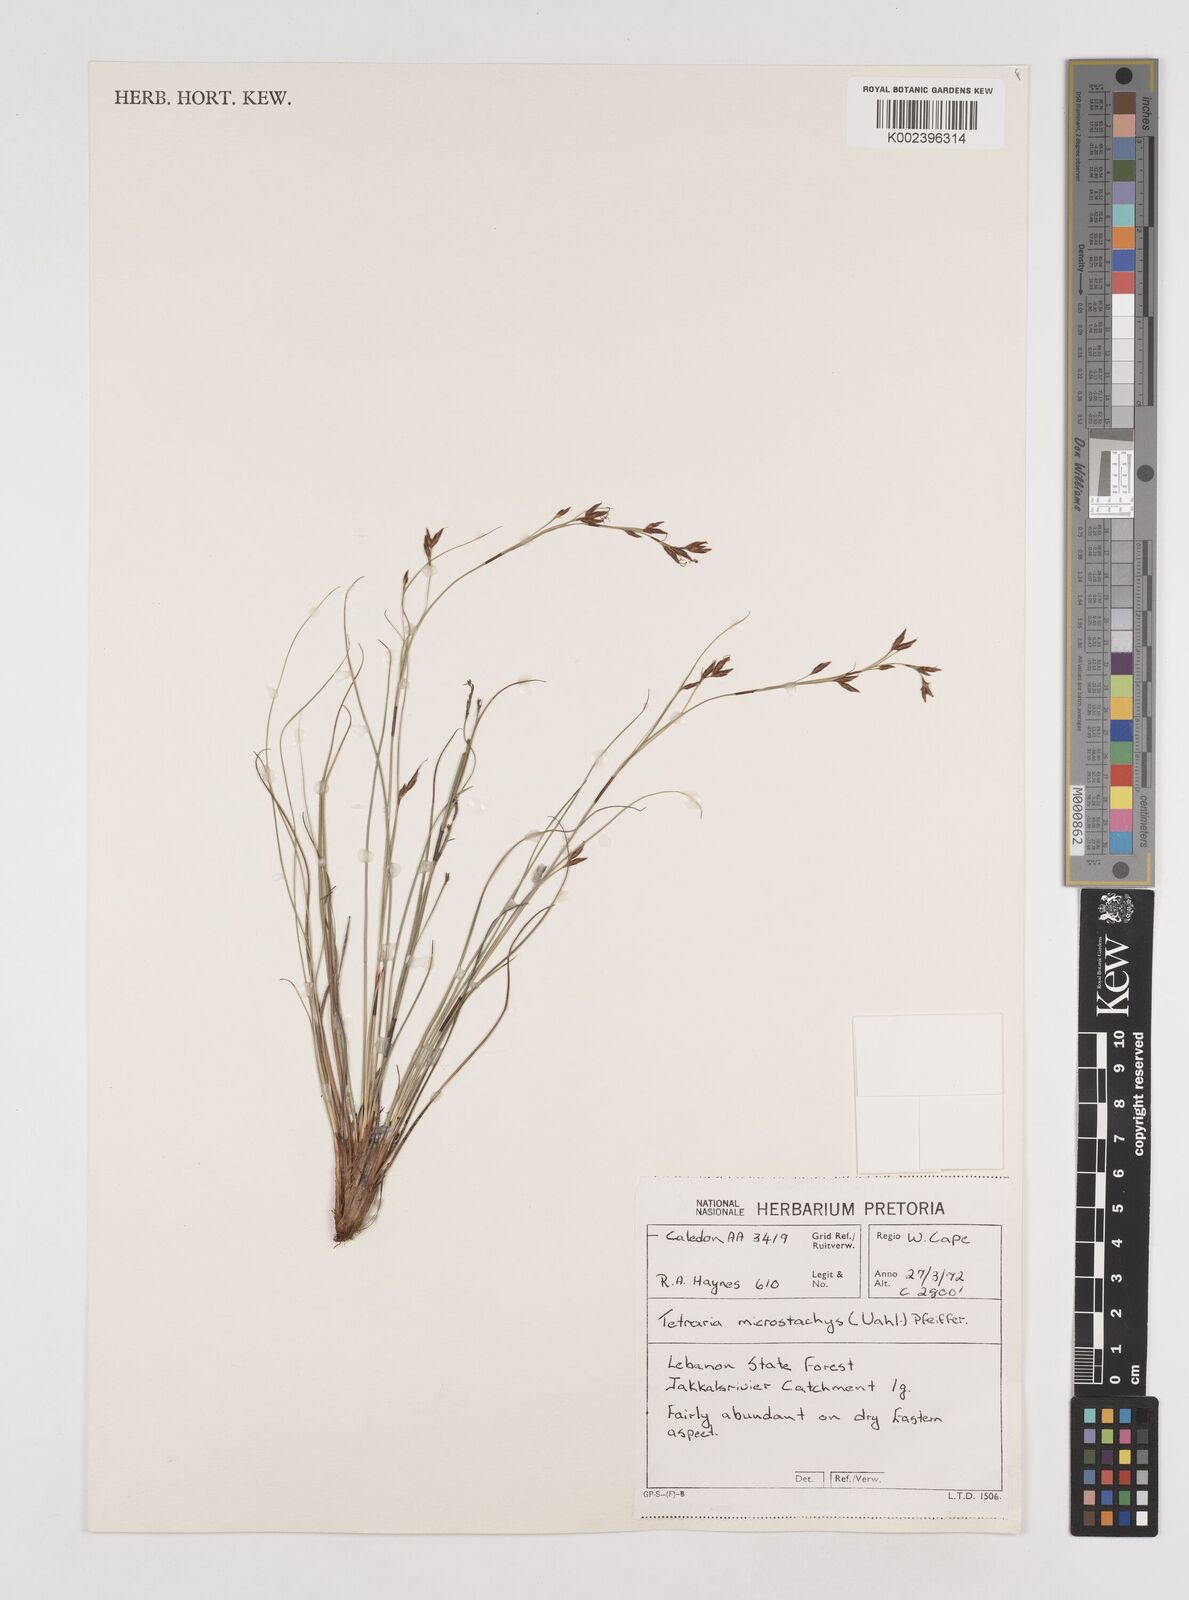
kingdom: Plantae
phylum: Tracheophyta
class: Liliopsida
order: Poales
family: Cyperaceae
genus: Tetraria
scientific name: Tetraria microstachys
